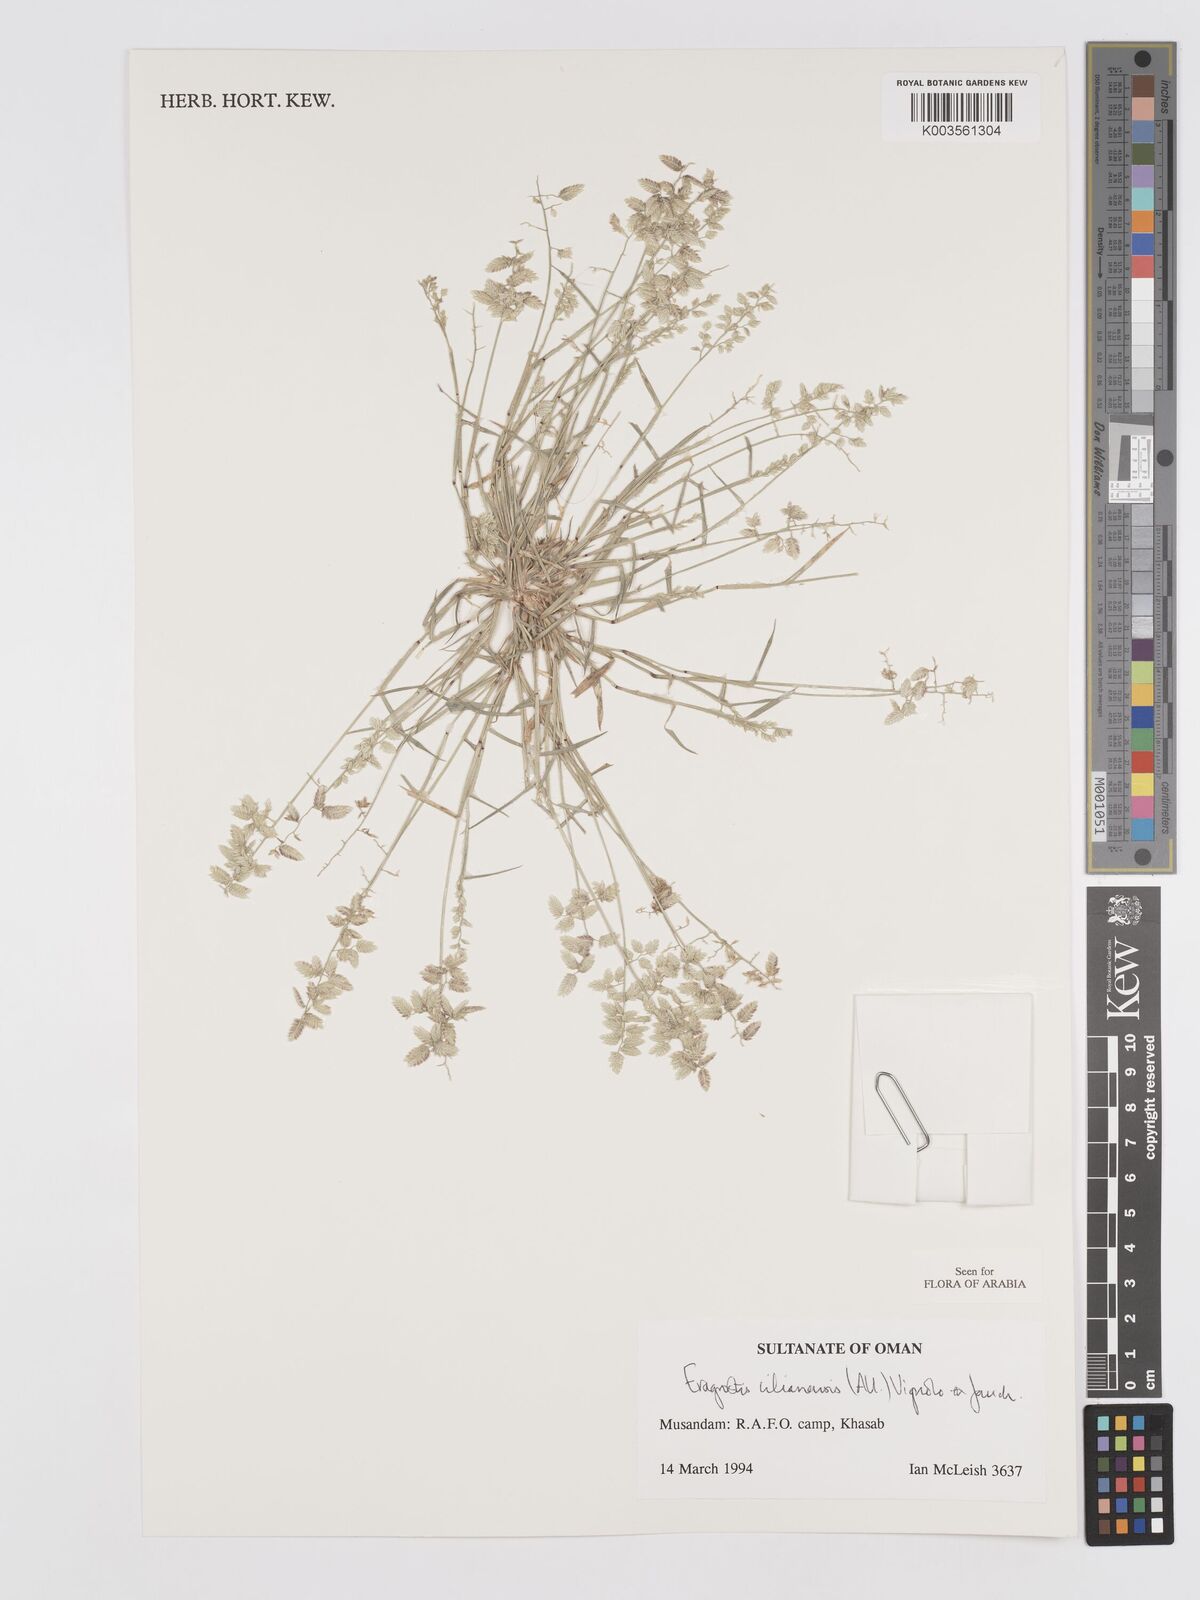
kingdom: Plantae
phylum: Tracheophyta
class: Liliopsida
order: Poales
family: Poaceae
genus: Eragrostis
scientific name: Eragrostis cilianensis
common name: Stinkgrass
